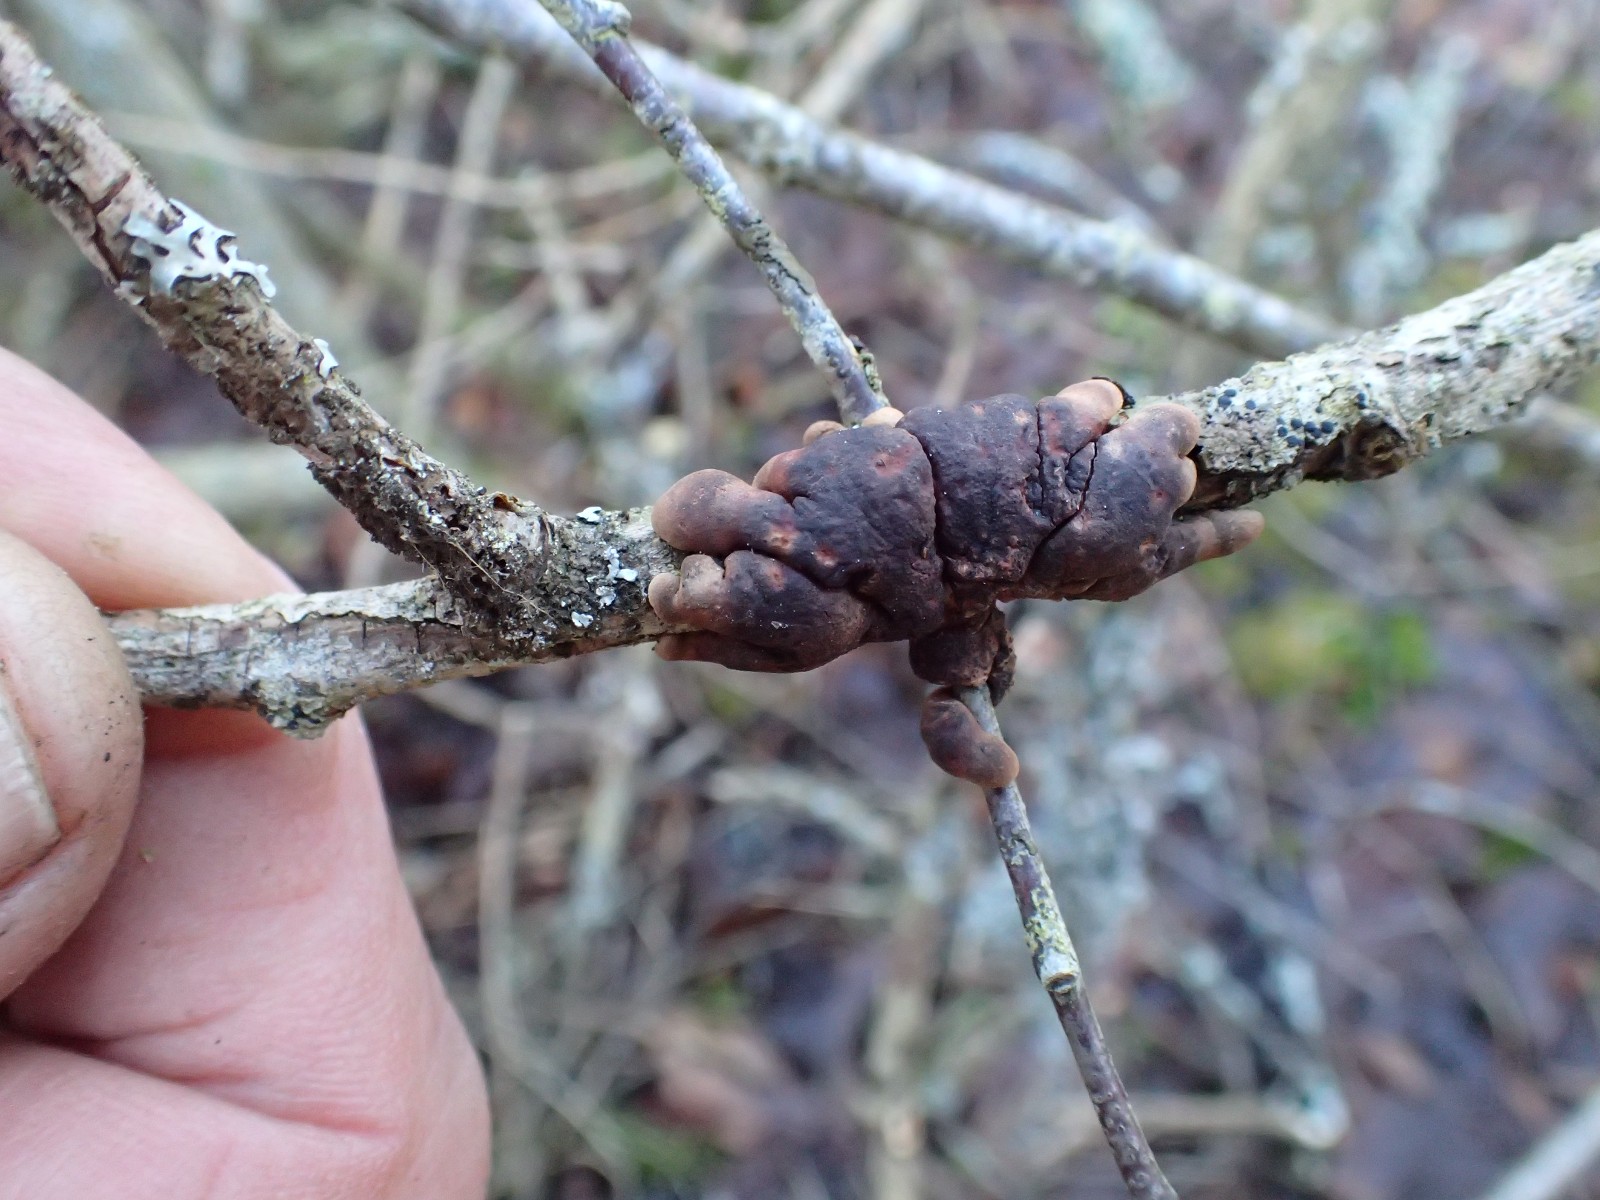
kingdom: Fungi
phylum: Ascomycota
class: Sordariomycetes
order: Hypocreales
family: Hypocreaceae
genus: Hypocreopsis
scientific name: Hypocreopsis lichenoides
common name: pilfinger
